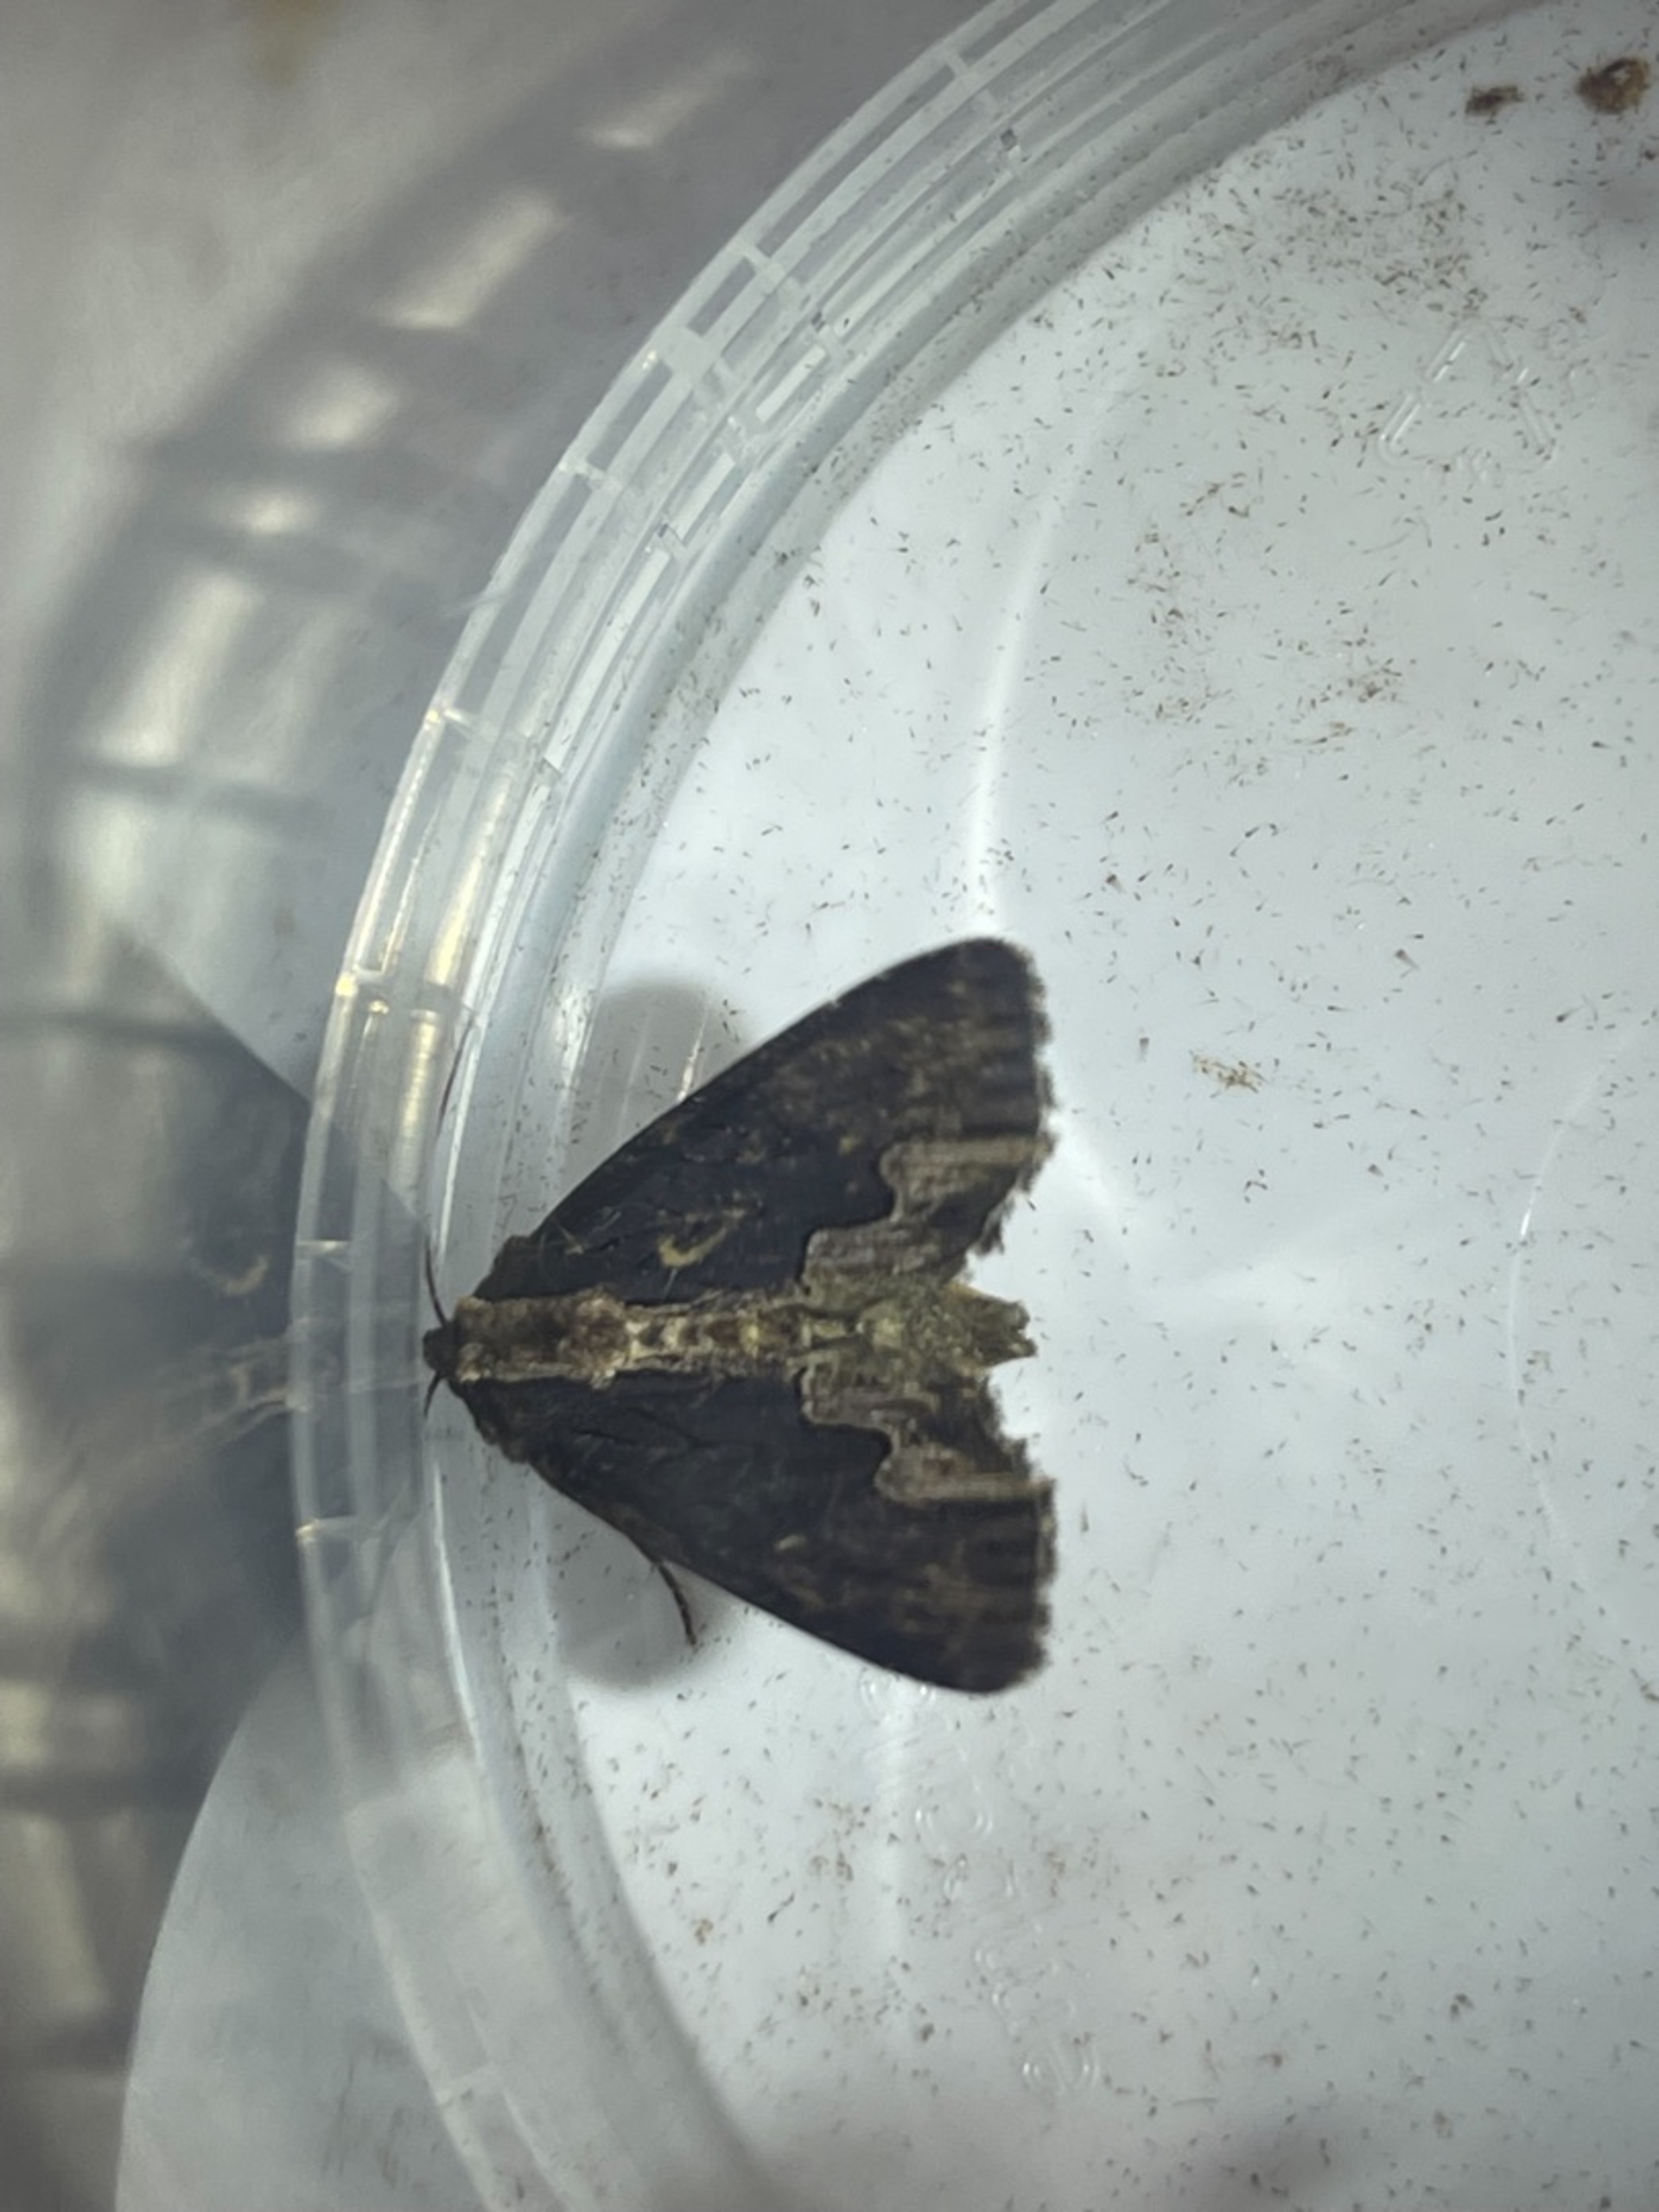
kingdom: Animalia
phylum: Arthropoda
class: Insecta
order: Lepidoptera
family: Noctuidae
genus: Dypterygia
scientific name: Dypterygia scabriuscula
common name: Mørk skræppeugle
